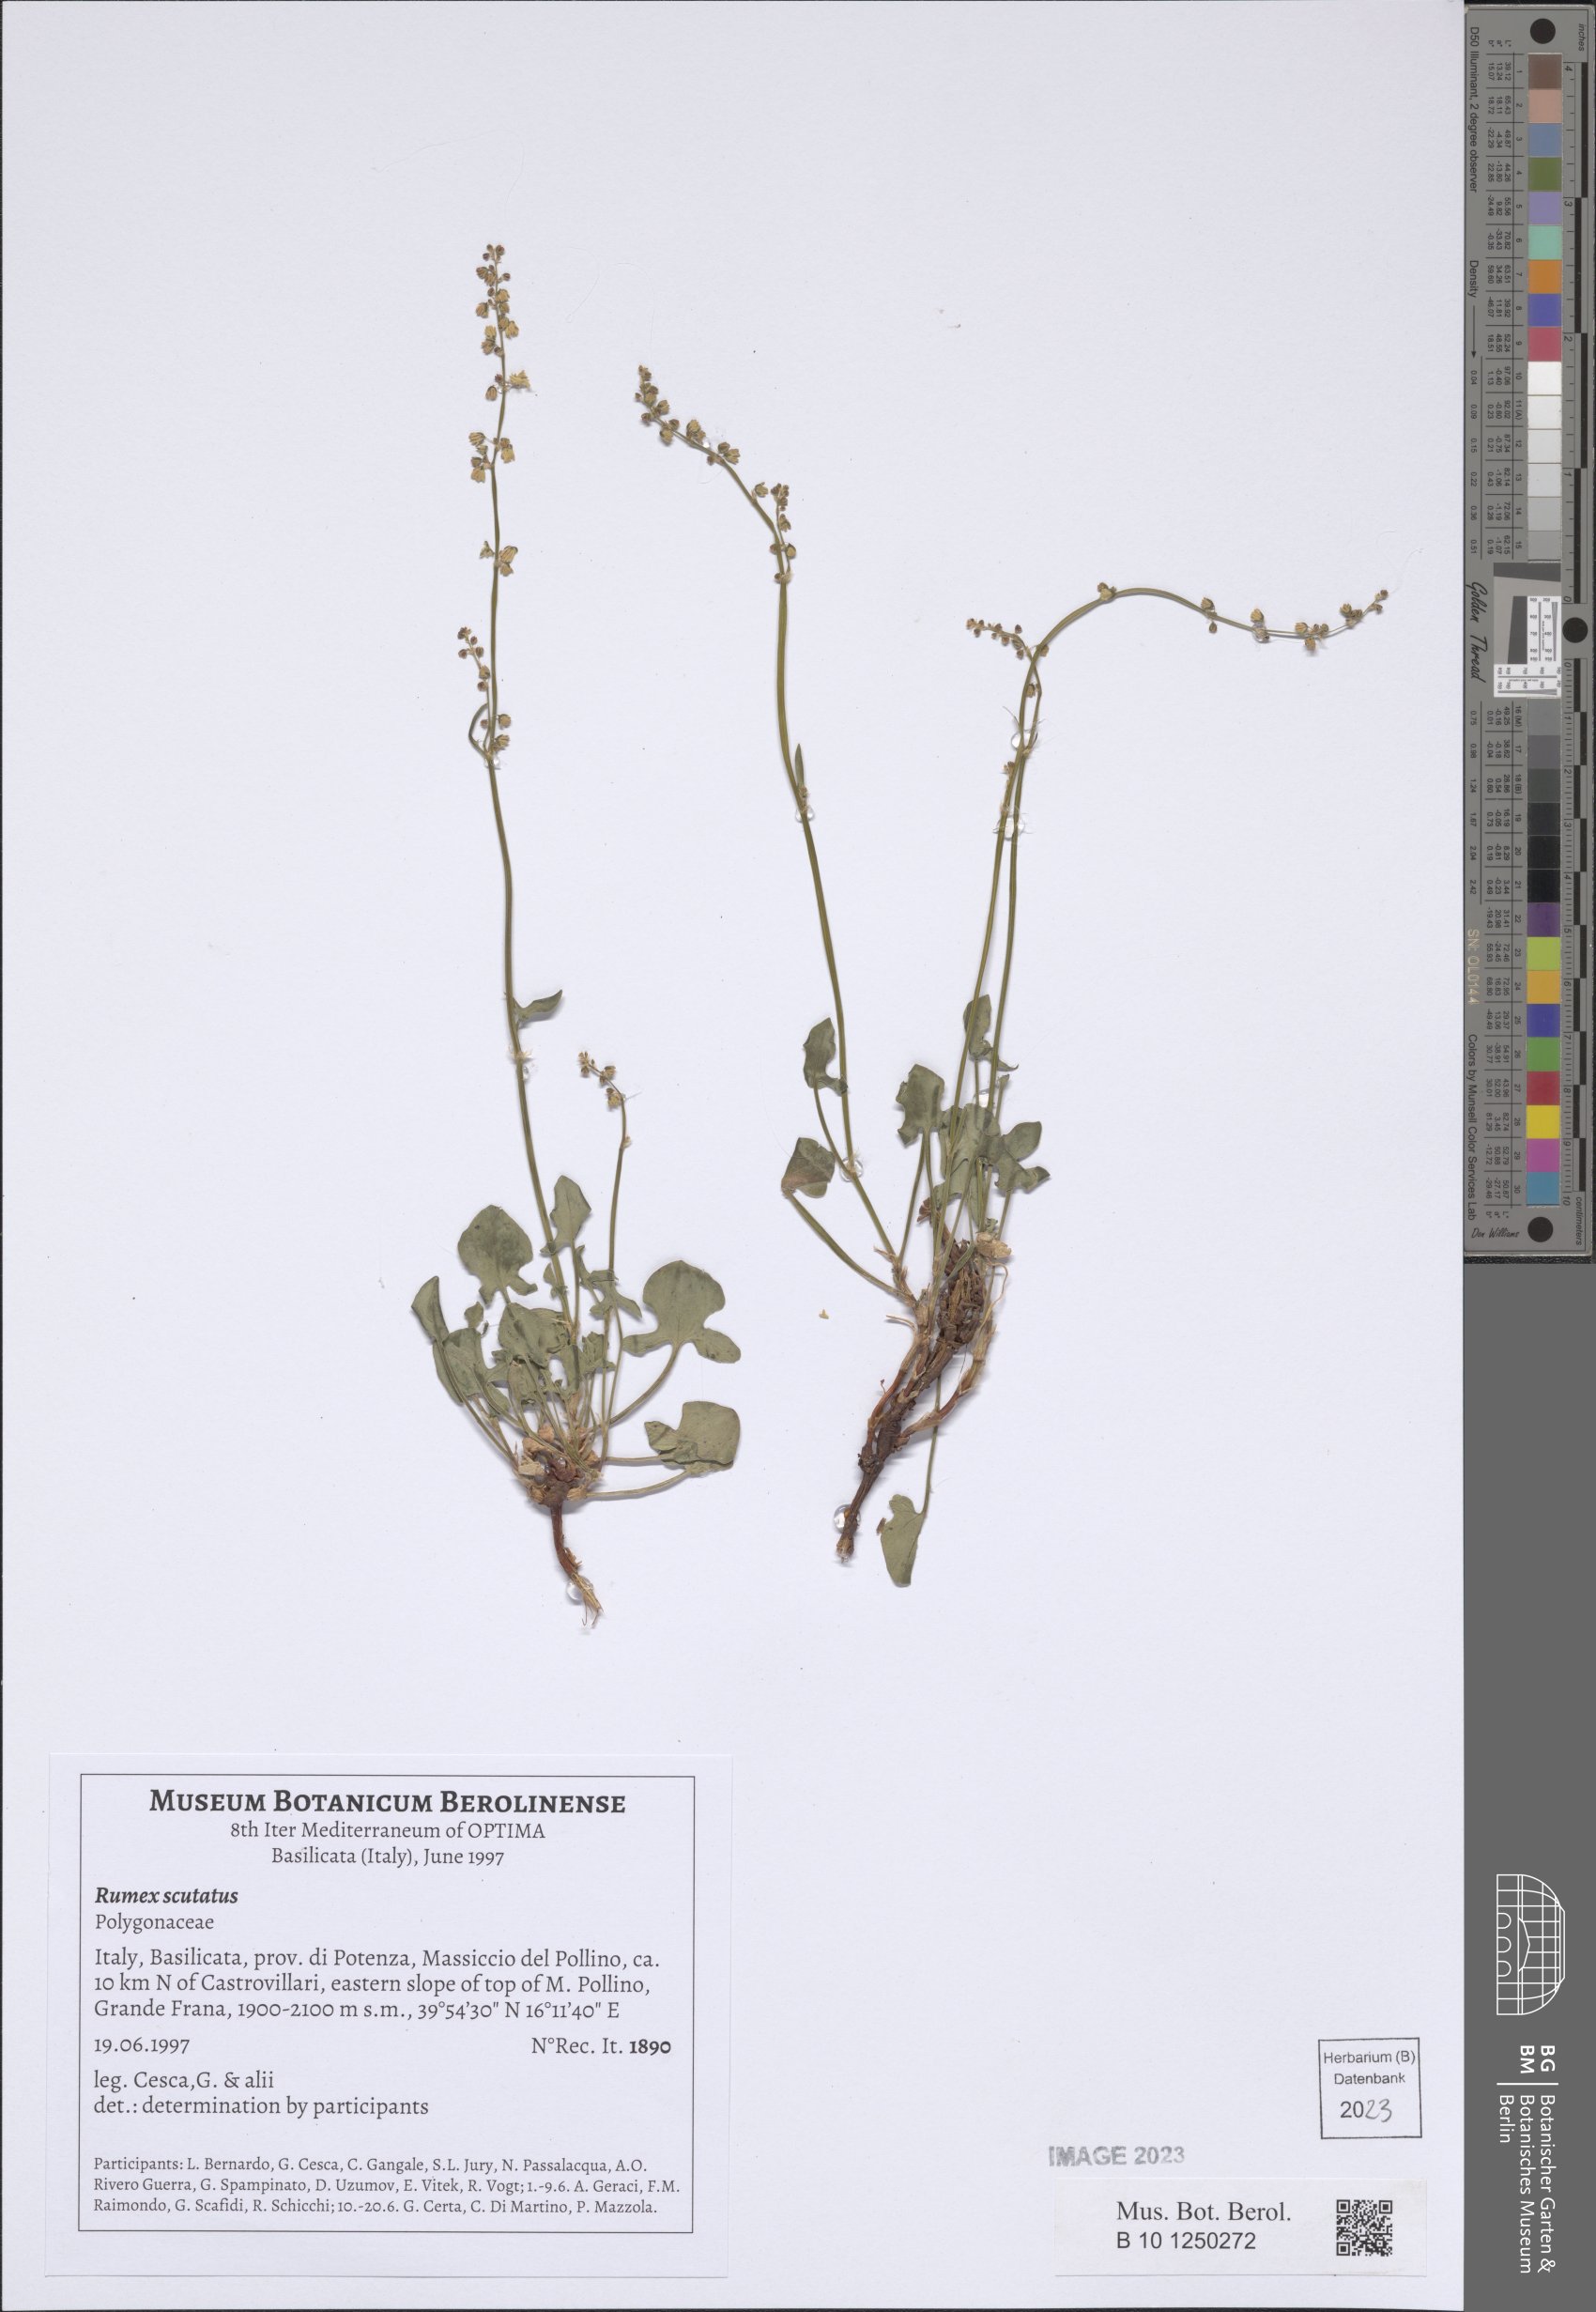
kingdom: Plantae
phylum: Tracheophyta
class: Magnoliopsida
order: Caryophyllales
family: Polygonaceae
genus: Rumex
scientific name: Rumex scutatus
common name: French sorrel
